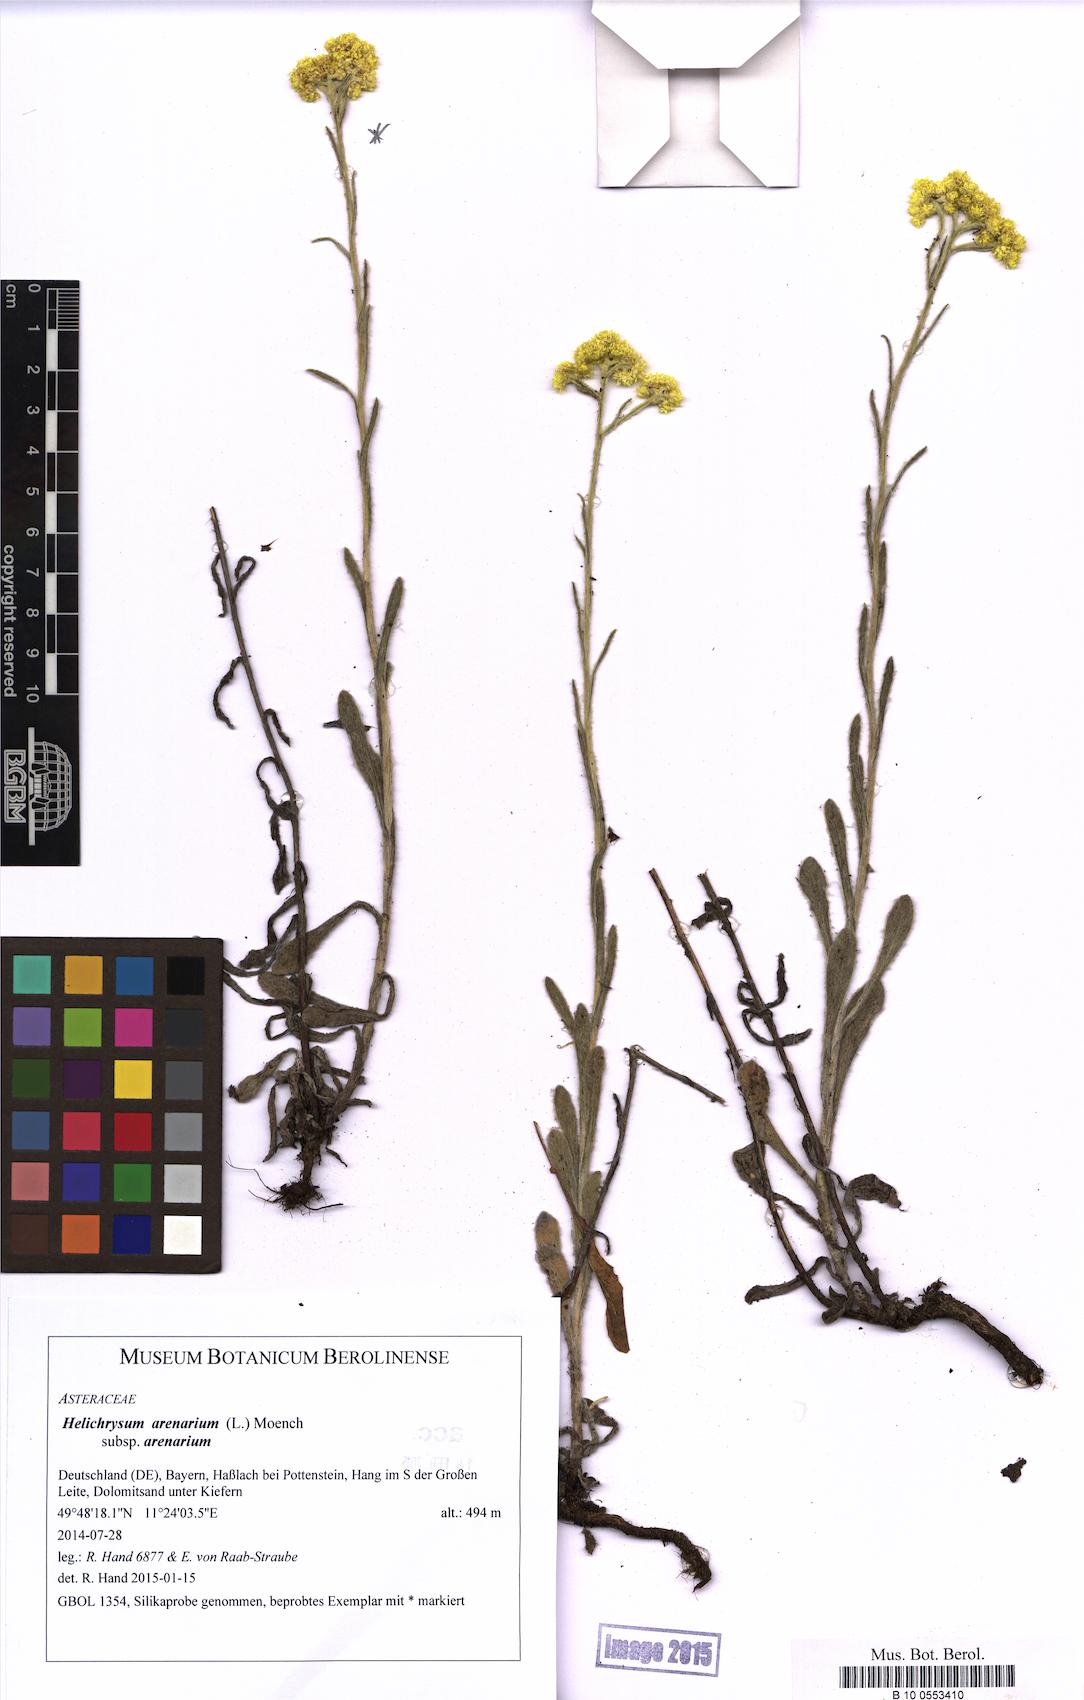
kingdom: Plantae
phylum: Tracheophyta
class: Magnoliopsida
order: Asterales
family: Asteraceae
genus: Helichrysum
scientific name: Helichrysum arenarium
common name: Strawflower
